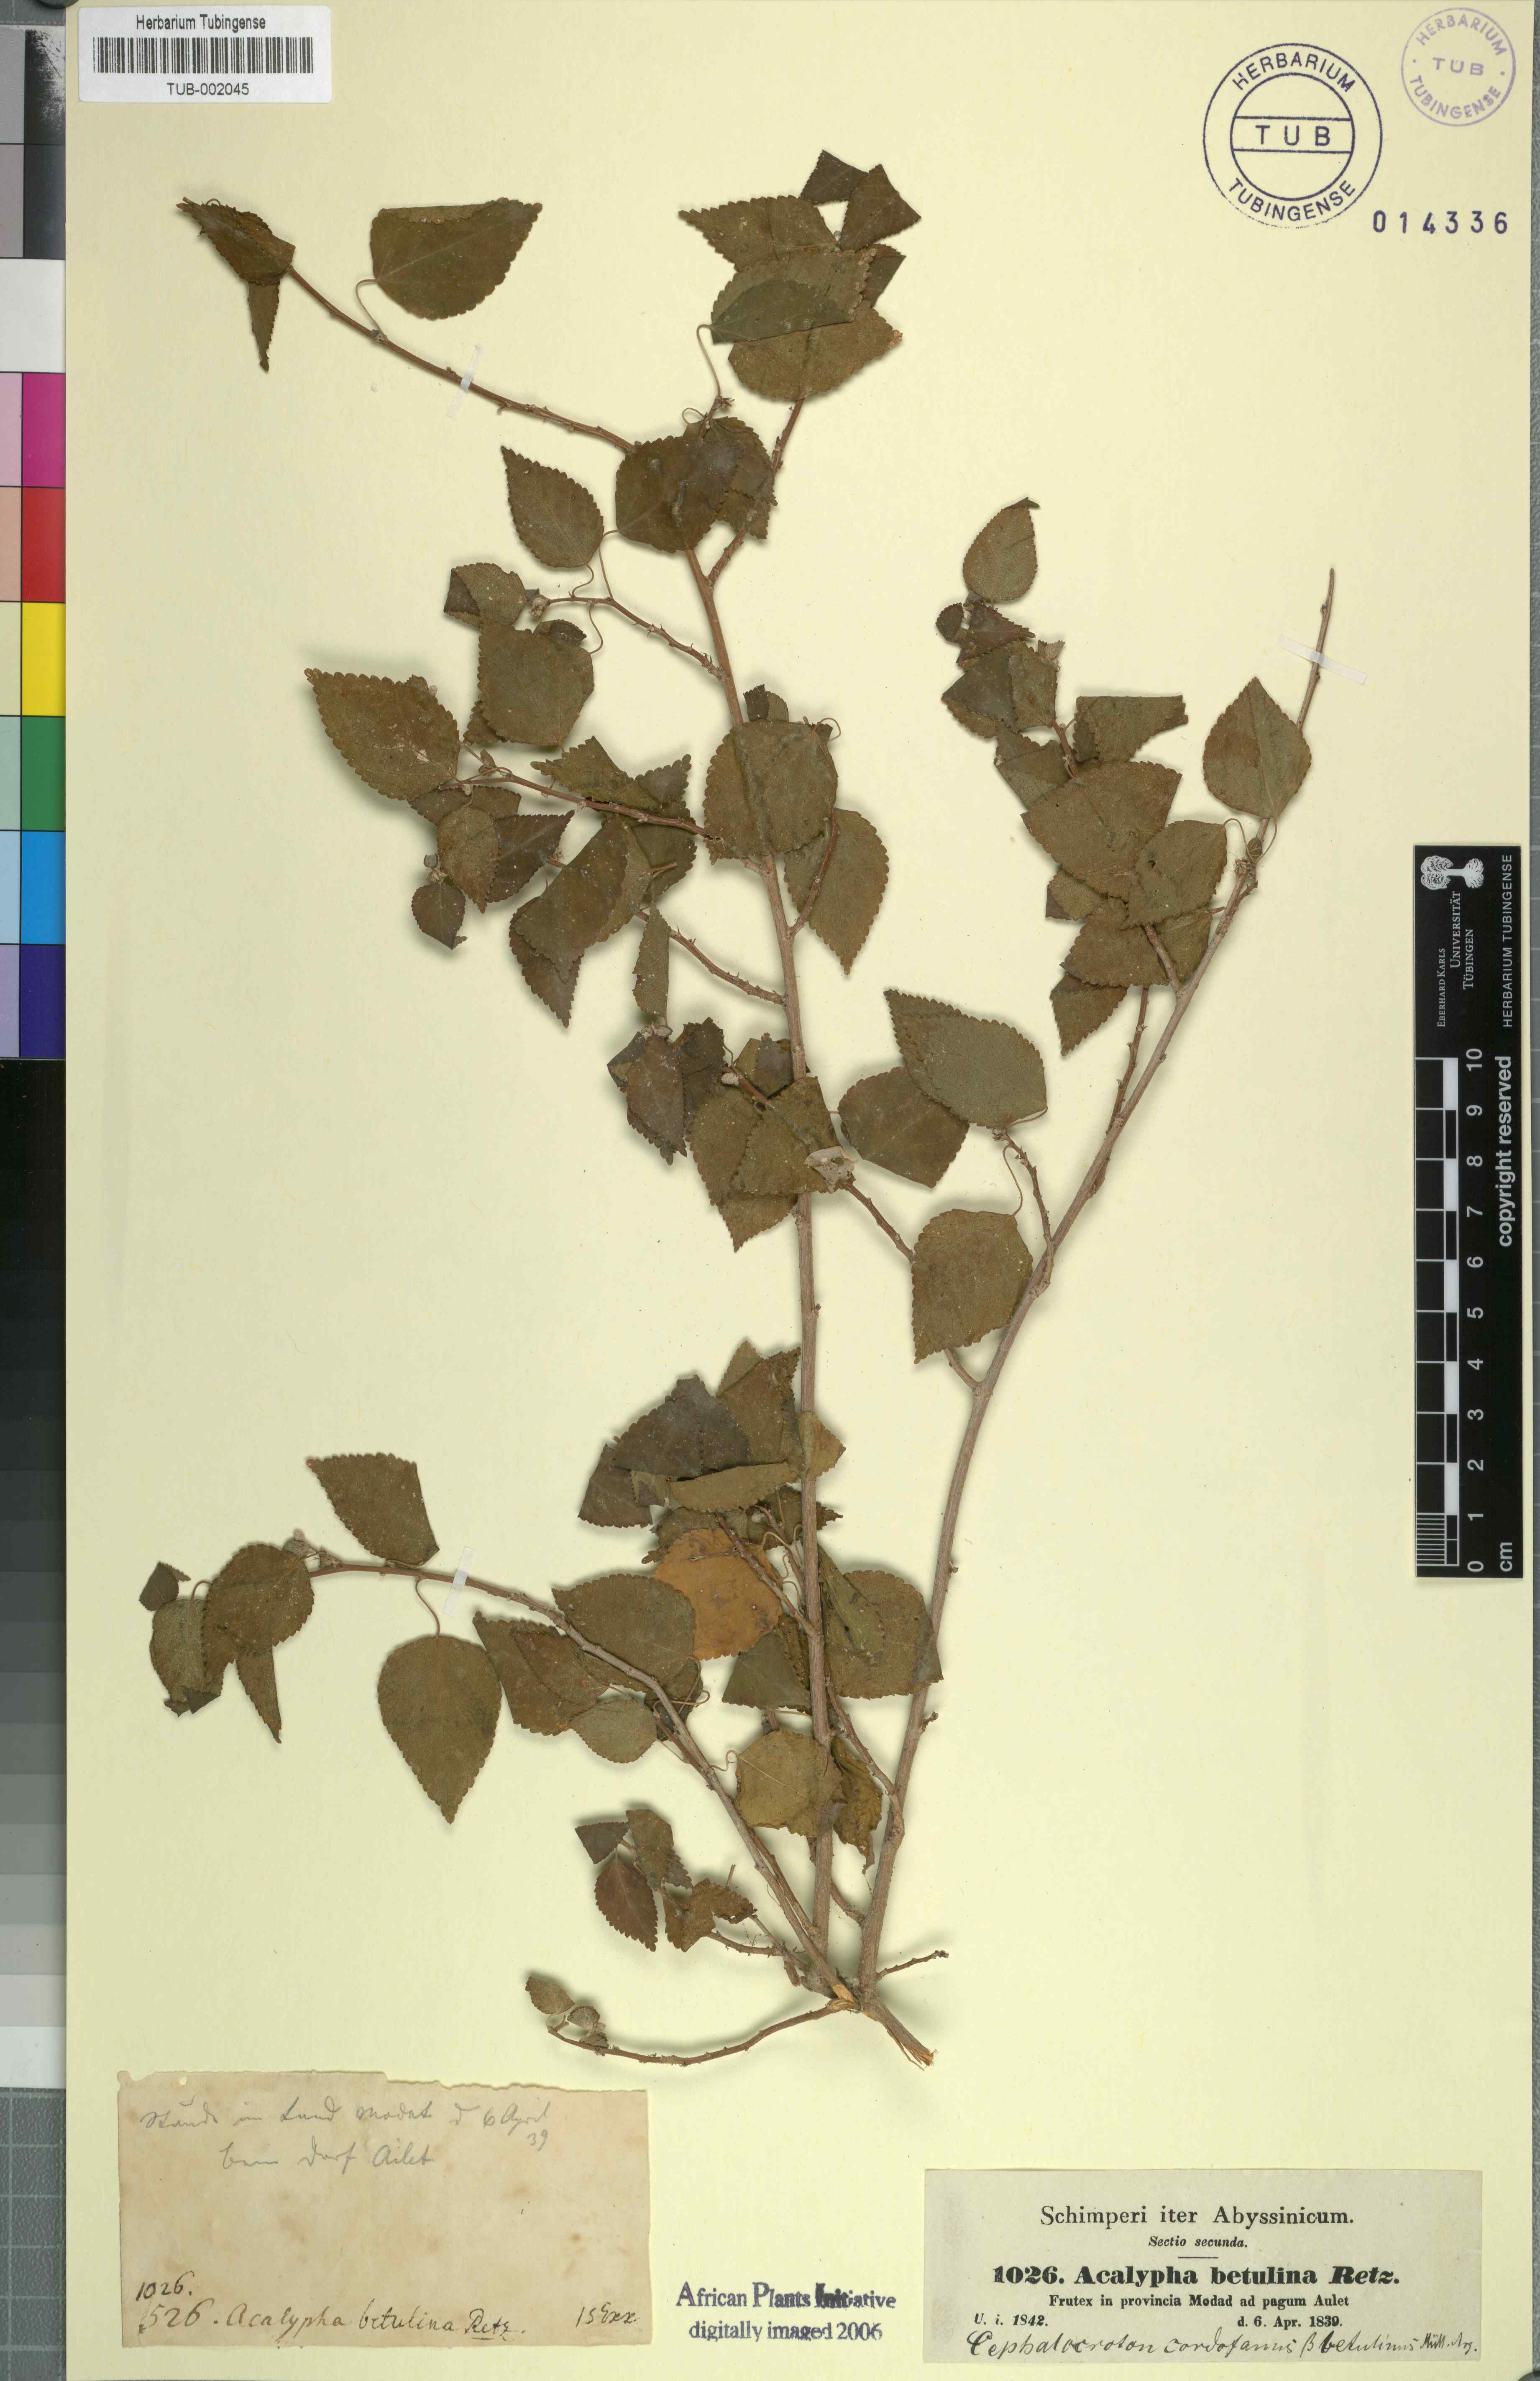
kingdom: Plantae
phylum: Tracheophyta
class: Magnoliopsida
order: Malpighiales
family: Euphorbiaceae
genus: Acalypha
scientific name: Acalypha fruticosa
